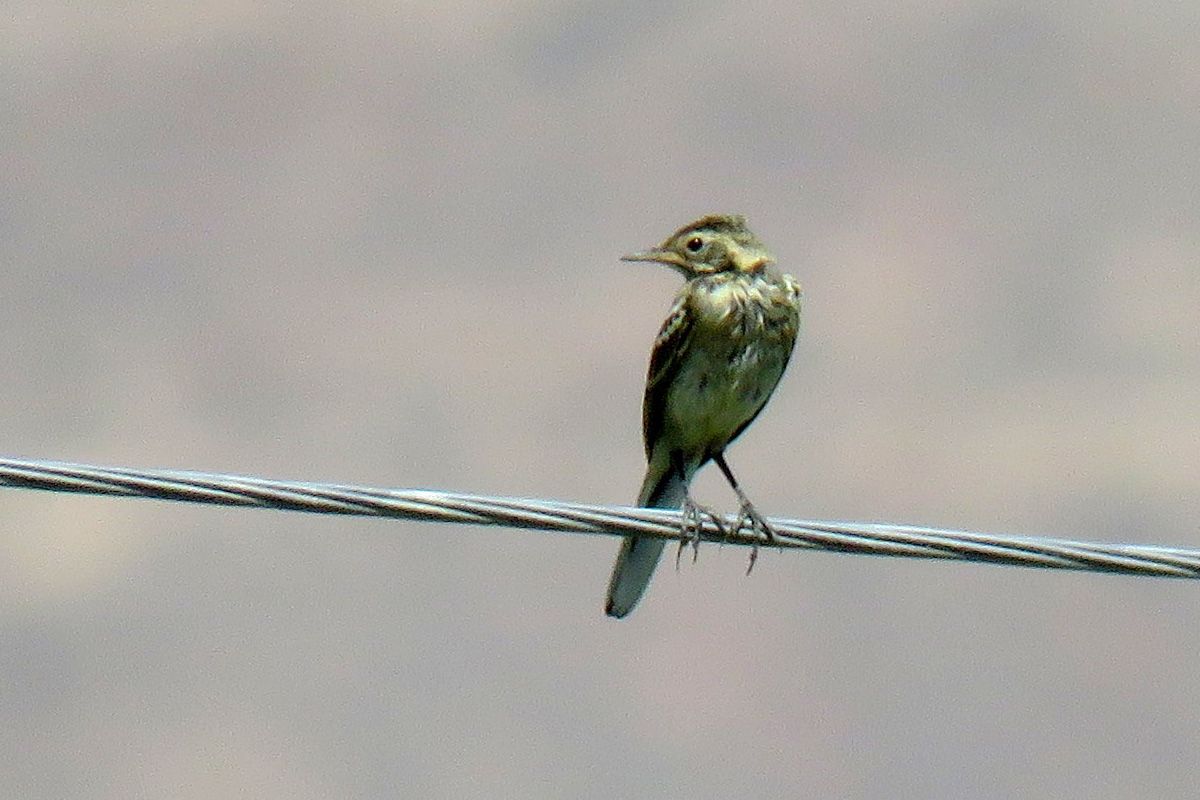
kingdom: Animalia
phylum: Chordata
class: Aves
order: Passeriformes
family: Motacillidae
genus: Anthus
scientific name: Anthus trivialis
